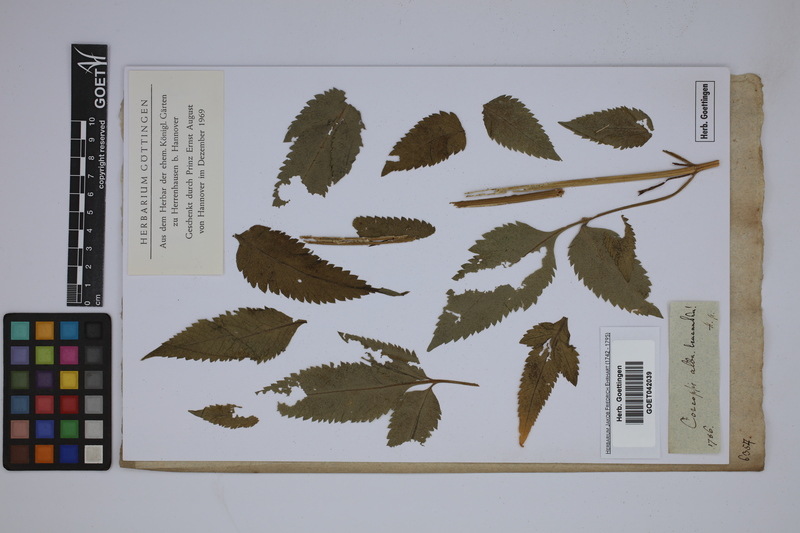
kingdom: Plantae
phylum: Tracheophyta
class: Magnoliopsida
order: Asterales
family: Asteraceae
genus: Bidens
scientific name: Bidens pilosa
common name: Black-jack
